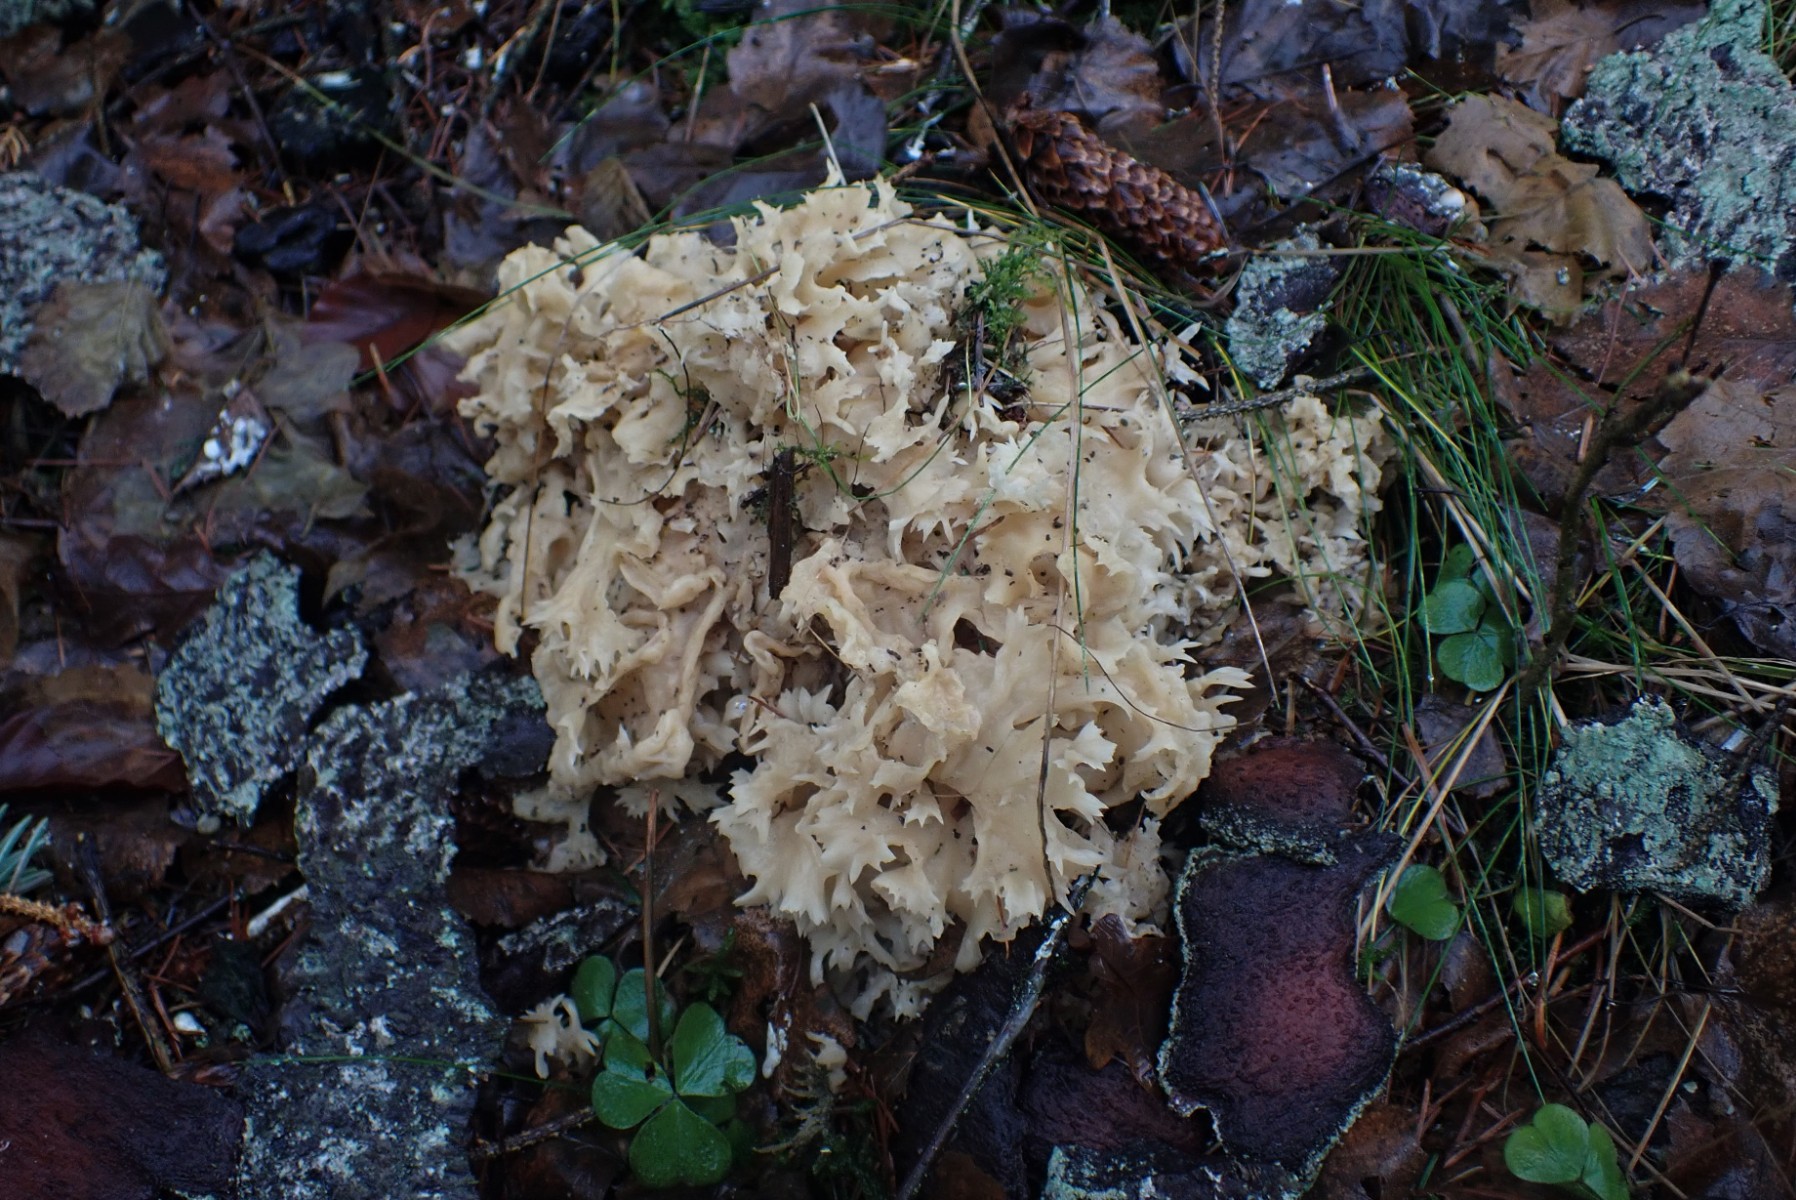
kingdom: Fungi
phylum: Basidiomycota
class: Agaricomycetes
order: Polyporales
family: Sparassidaceae
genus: Sparassis
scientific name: Sparassis crispa
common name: kruset blomkålssvamp
